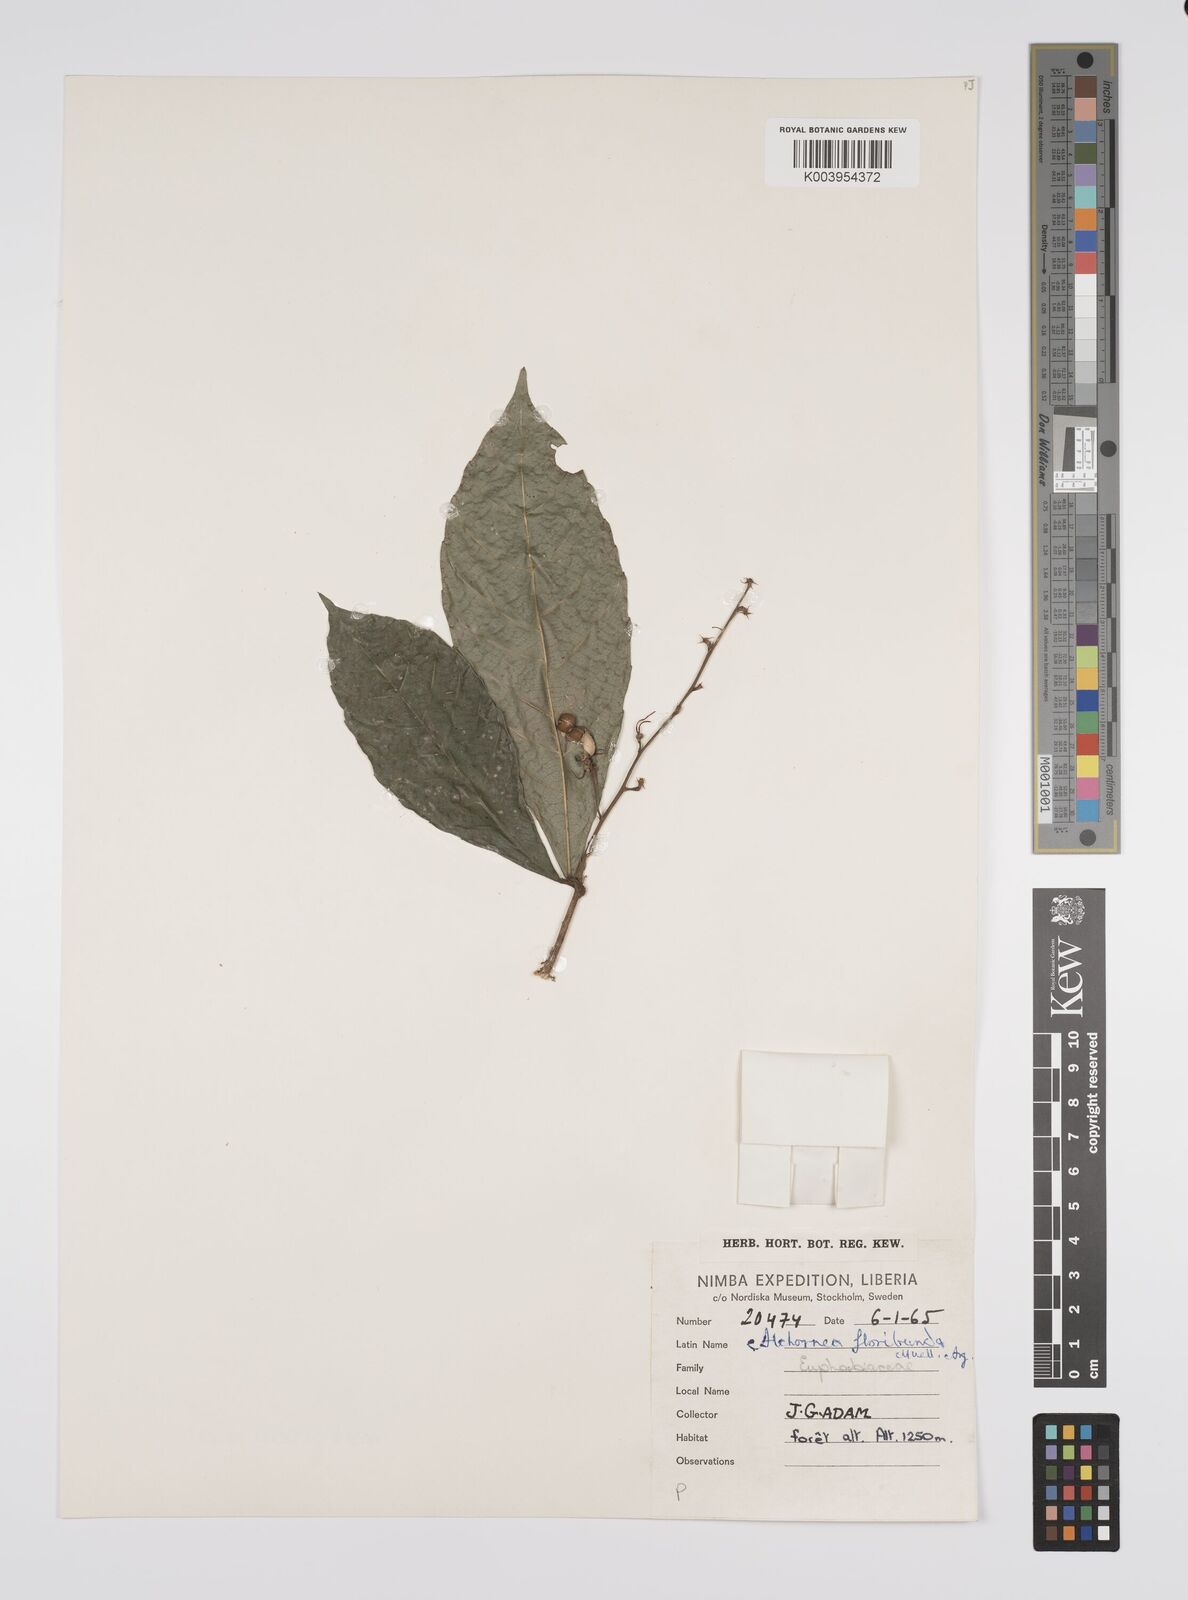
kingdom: Plantae
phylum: Tracheophyta
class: Magnoliopsida
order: Malpighiales
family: Euphorbiaceae
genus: Alchornea
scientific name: Alchornea floribunda
